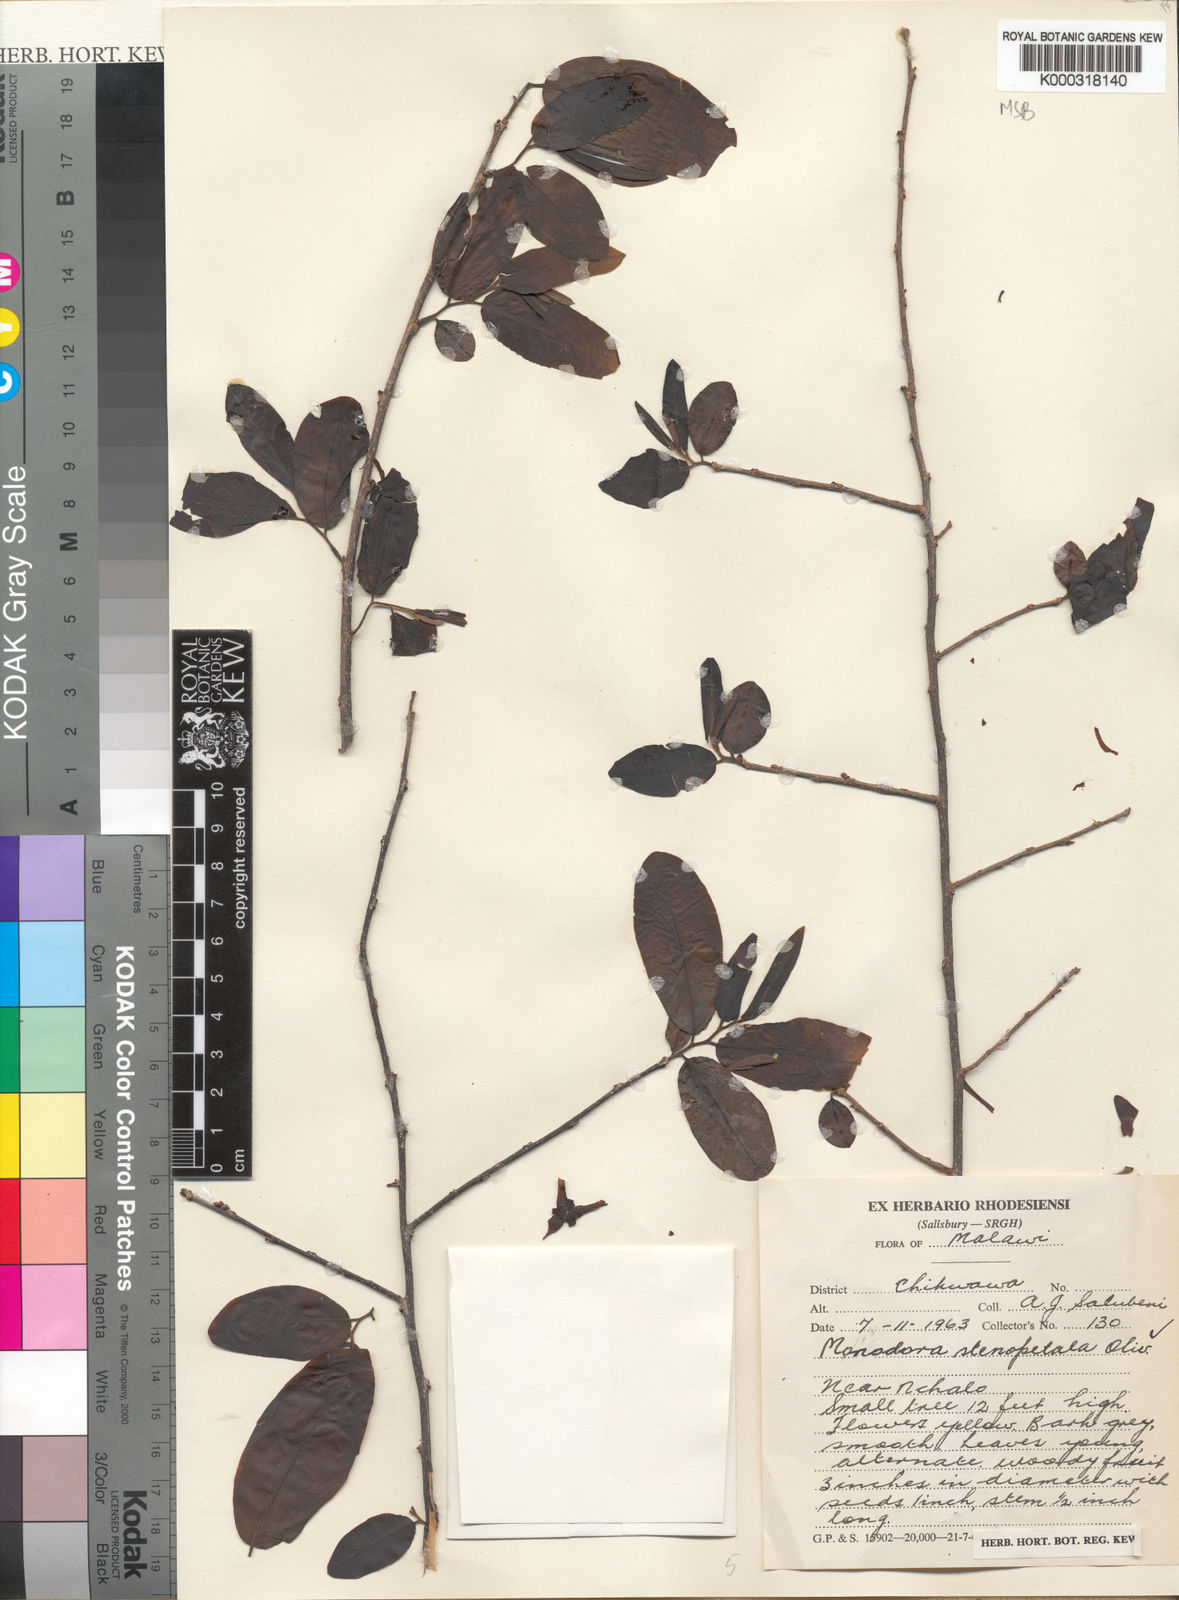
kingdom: Plantae
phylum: Tracheophyta
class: Magnoliopsida
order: Magnoliales
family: Annonaceae
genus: Monodora
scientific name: Monodora stenopetala
